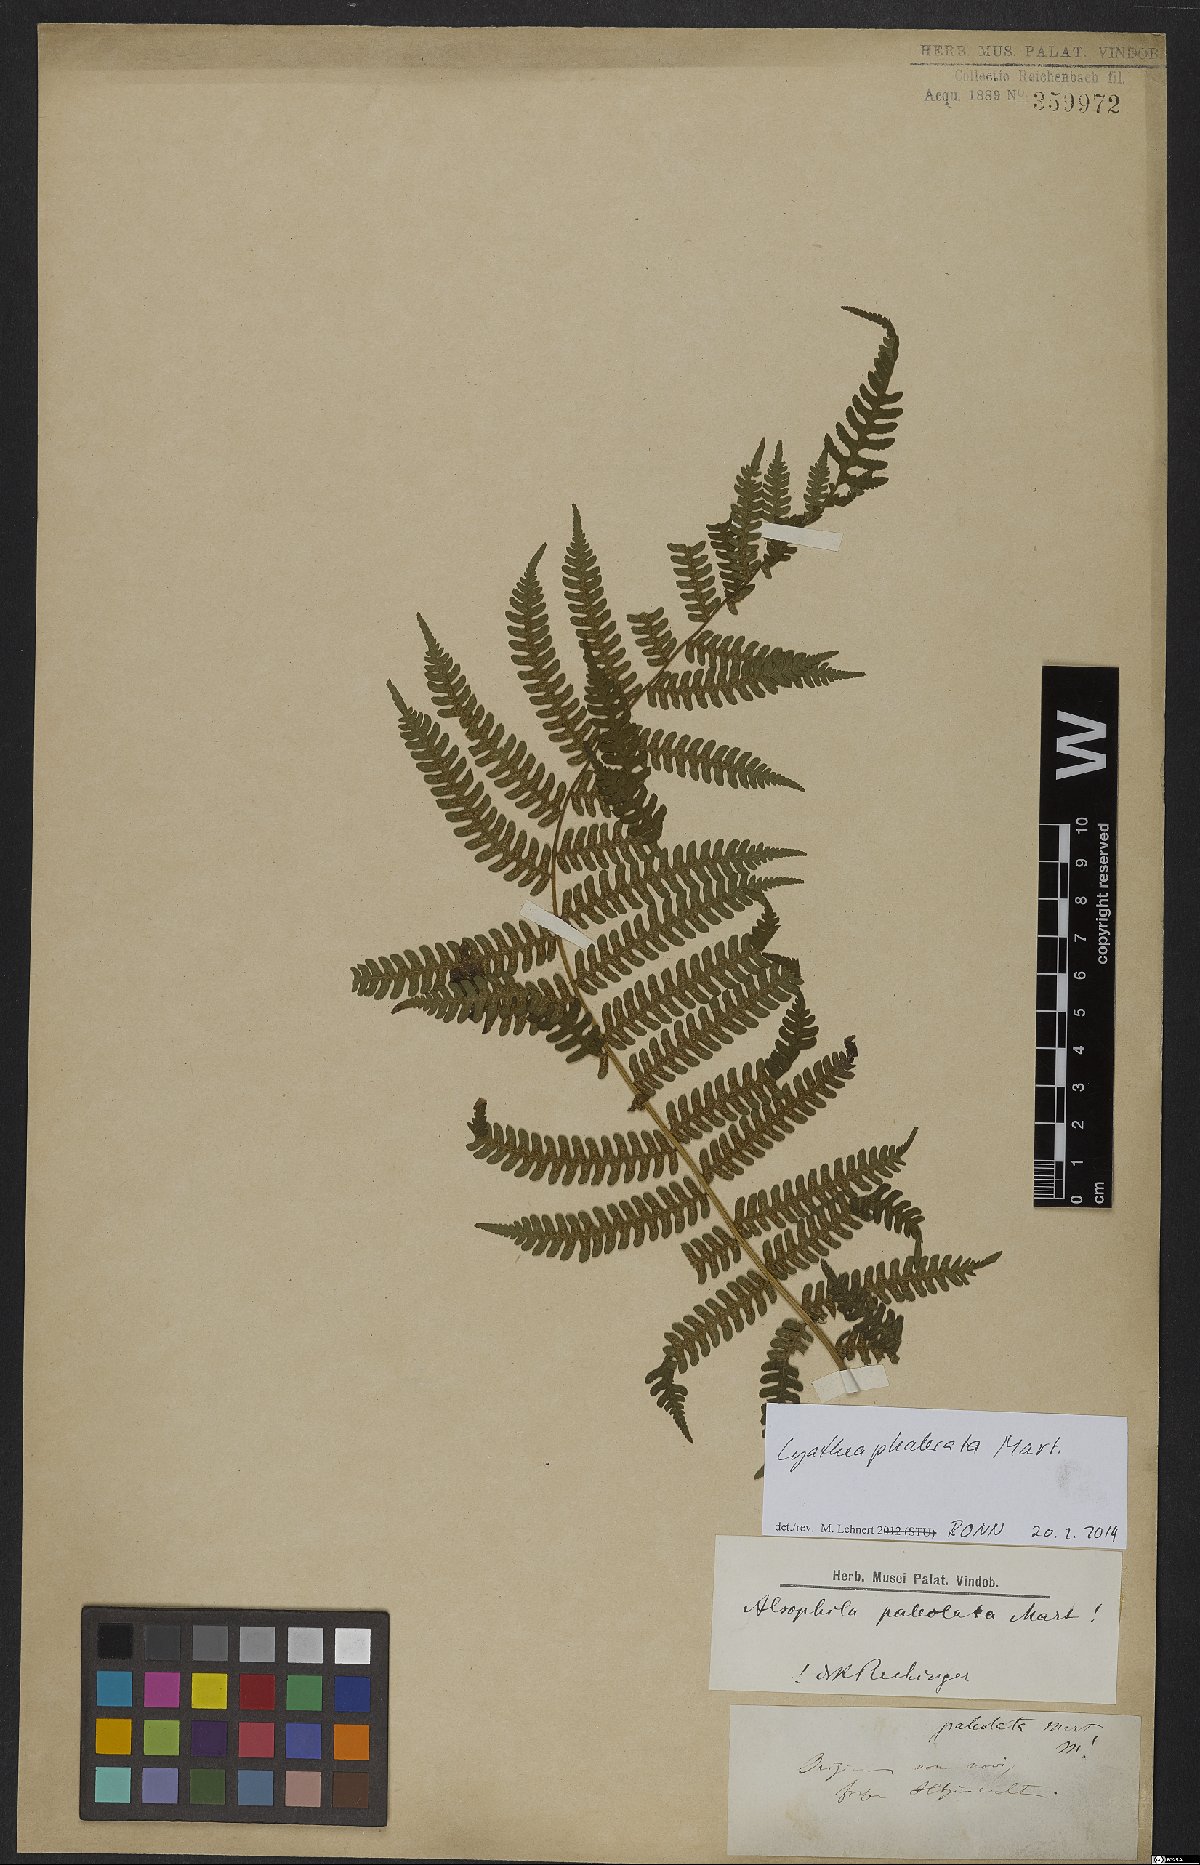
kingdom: Plantae
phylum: Tracheophyta
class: Polypodiopsida
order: Cyatheales
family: Cyatheaceae
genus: Cyathea
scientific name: Cyathea phalerata
